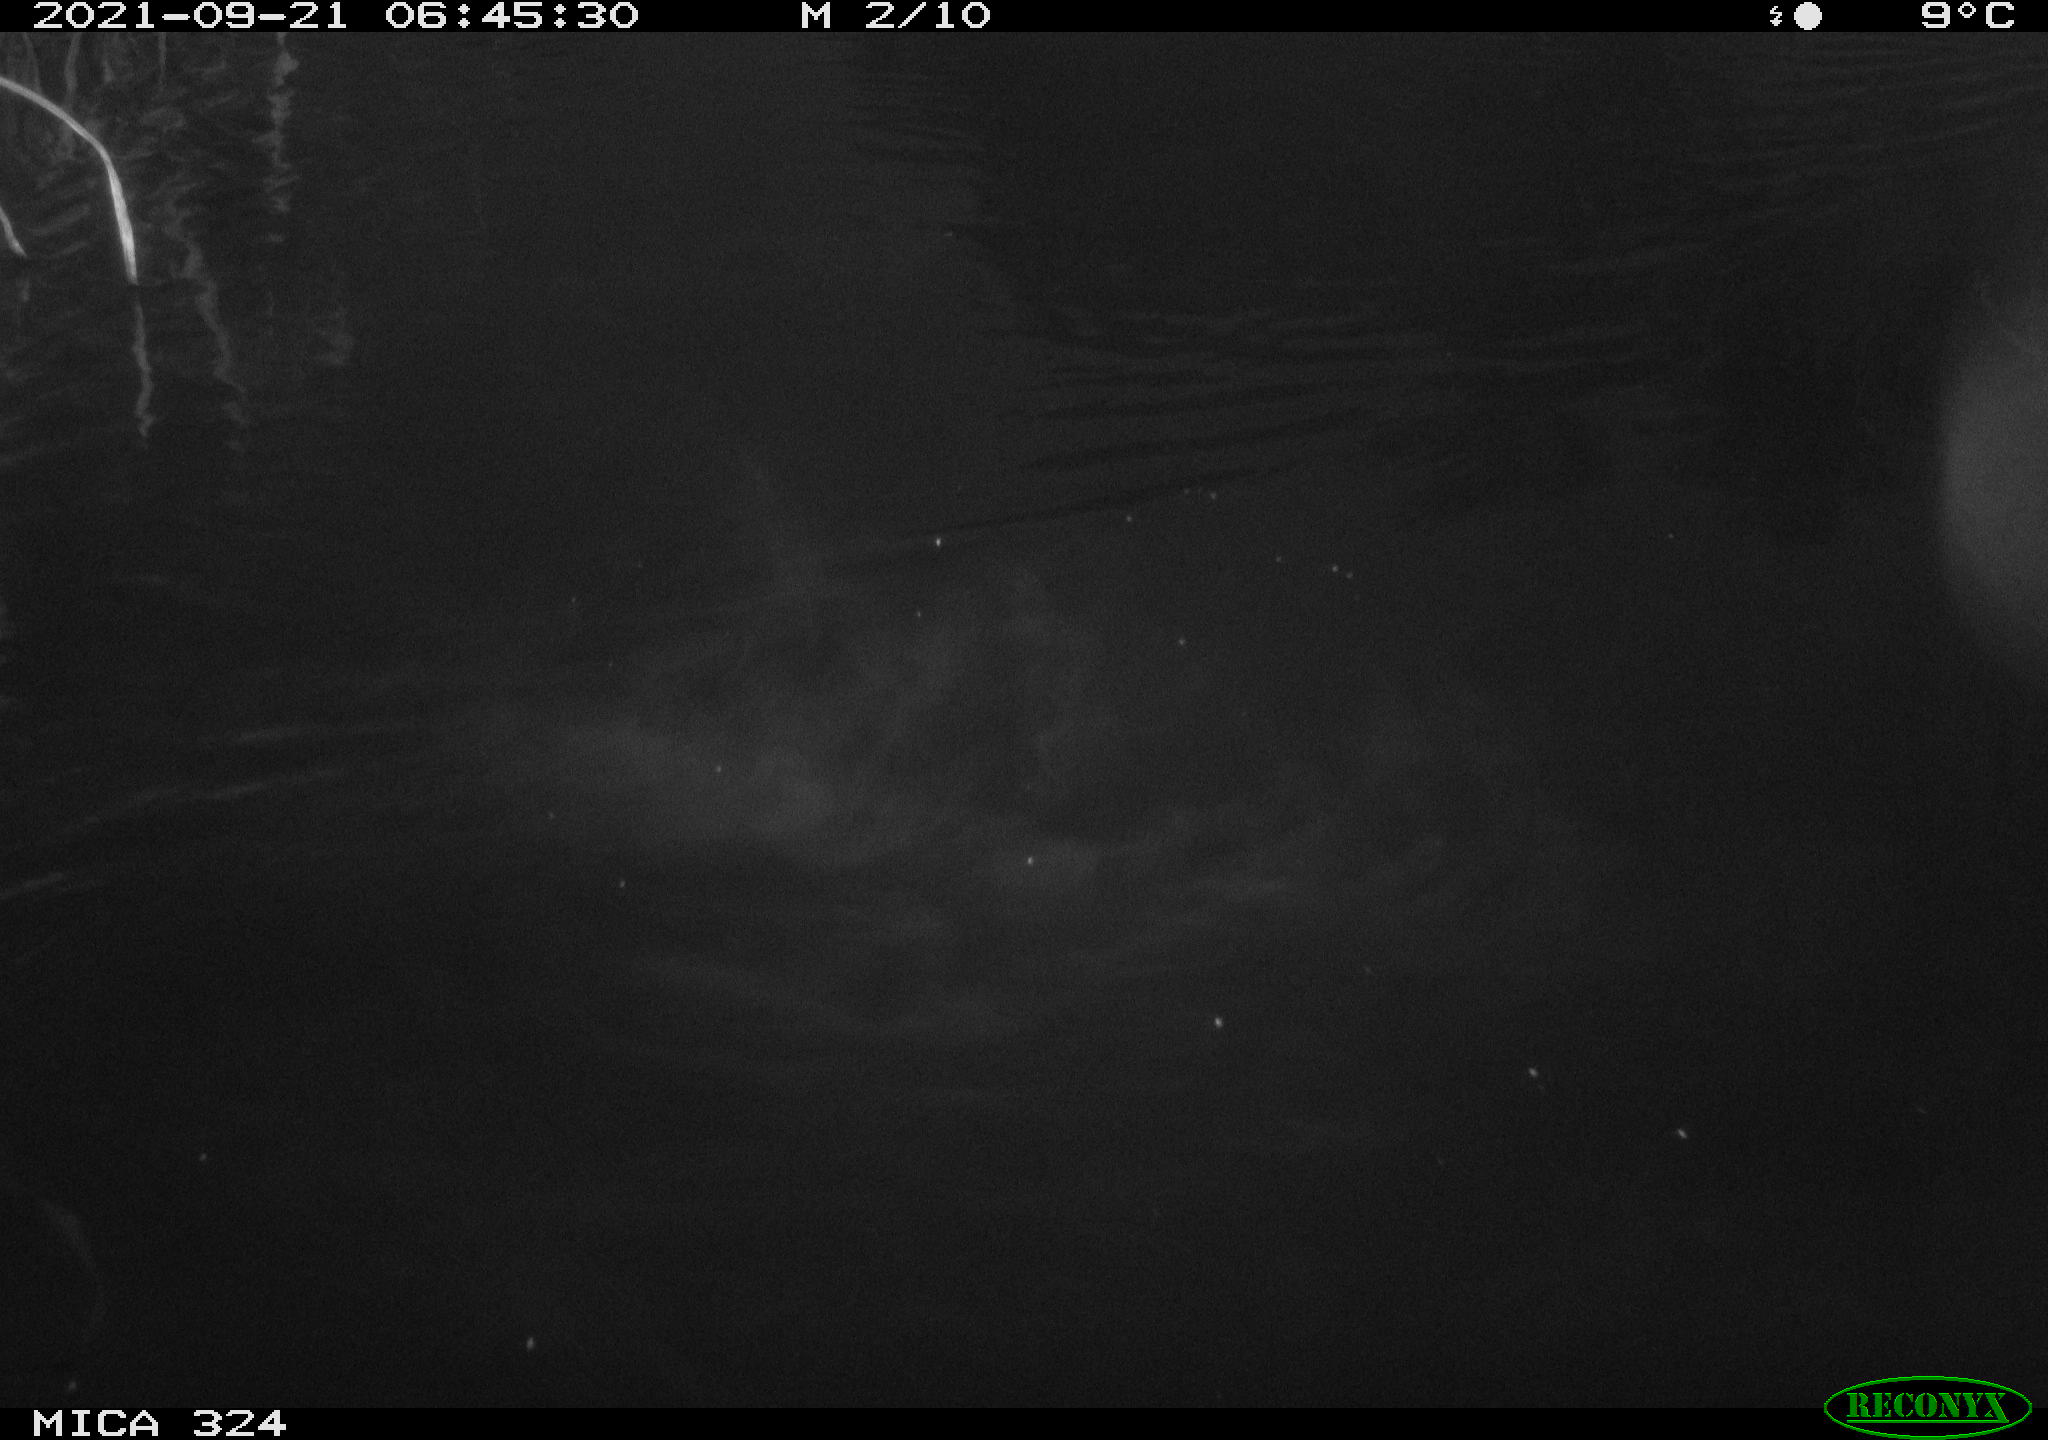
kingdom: Animalia
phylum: Chordata
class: Mammalia
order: Rodentia
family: Cricetidae
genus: Ondatra
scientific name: Ondatra zibethicus
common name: Muskrat
